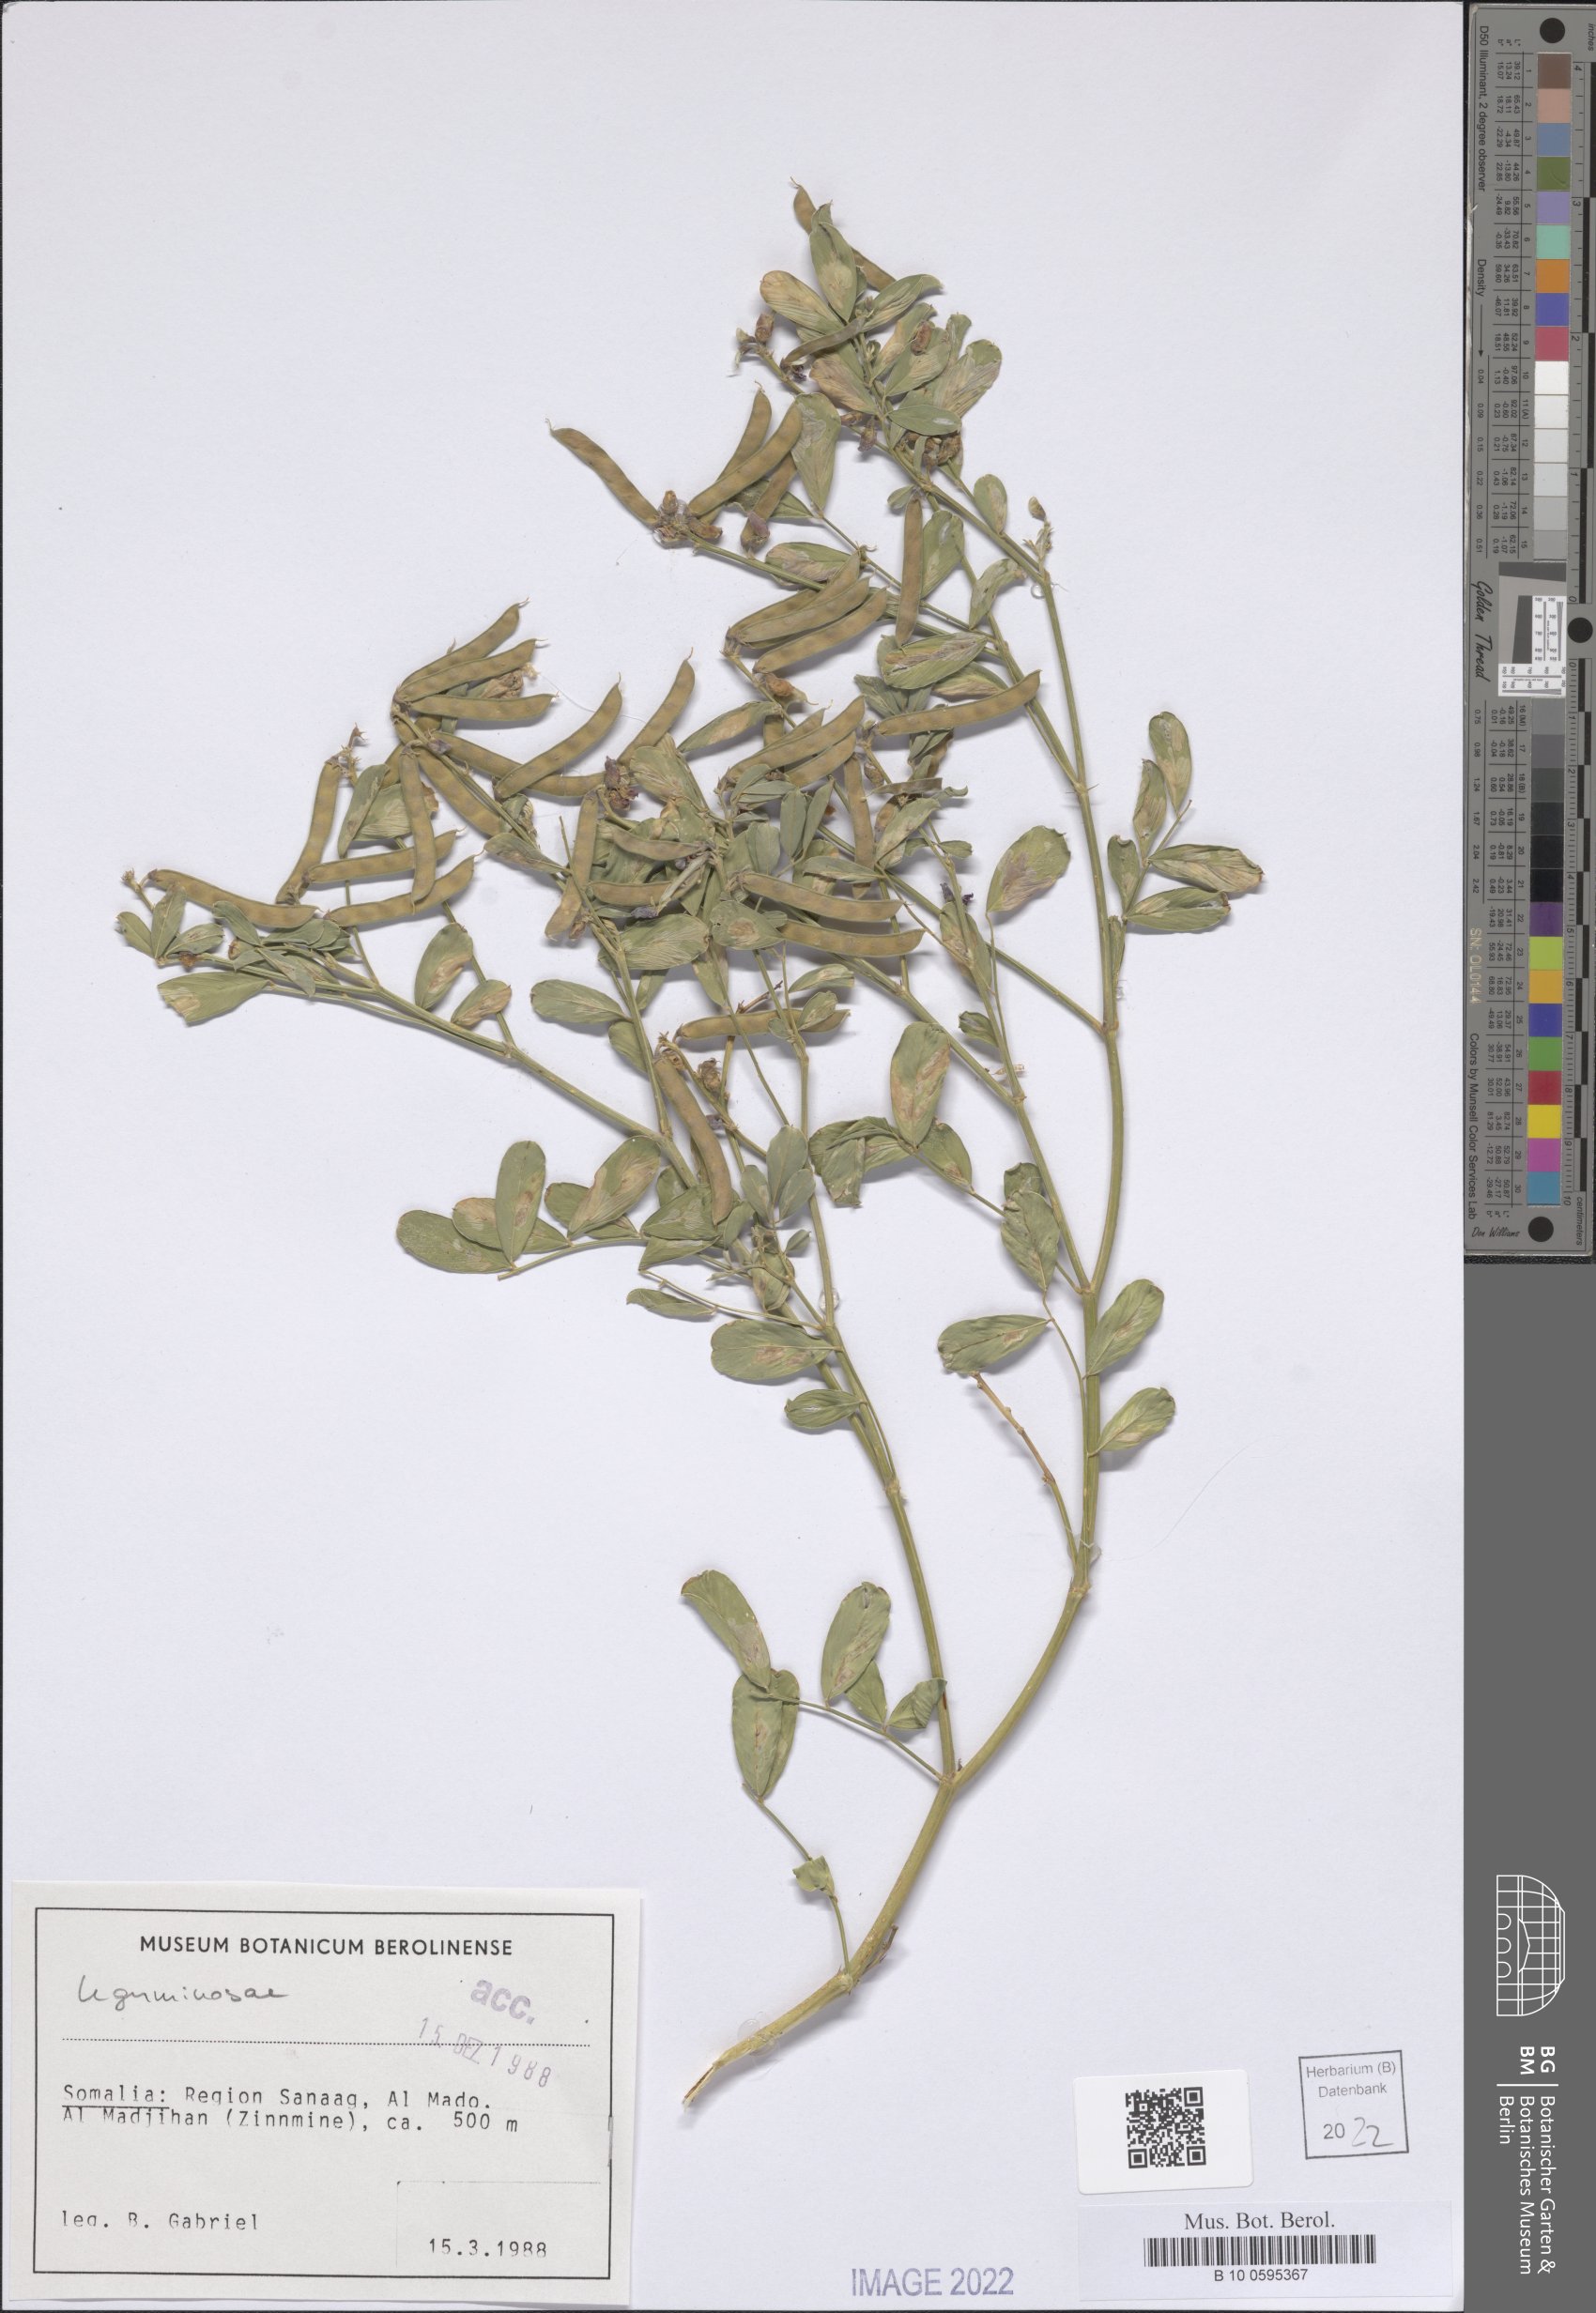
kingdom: Plantae
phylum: Tracheophyta
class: Magnoliopsida
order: Fabales
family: Fabaceae
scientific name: Fabaceae
